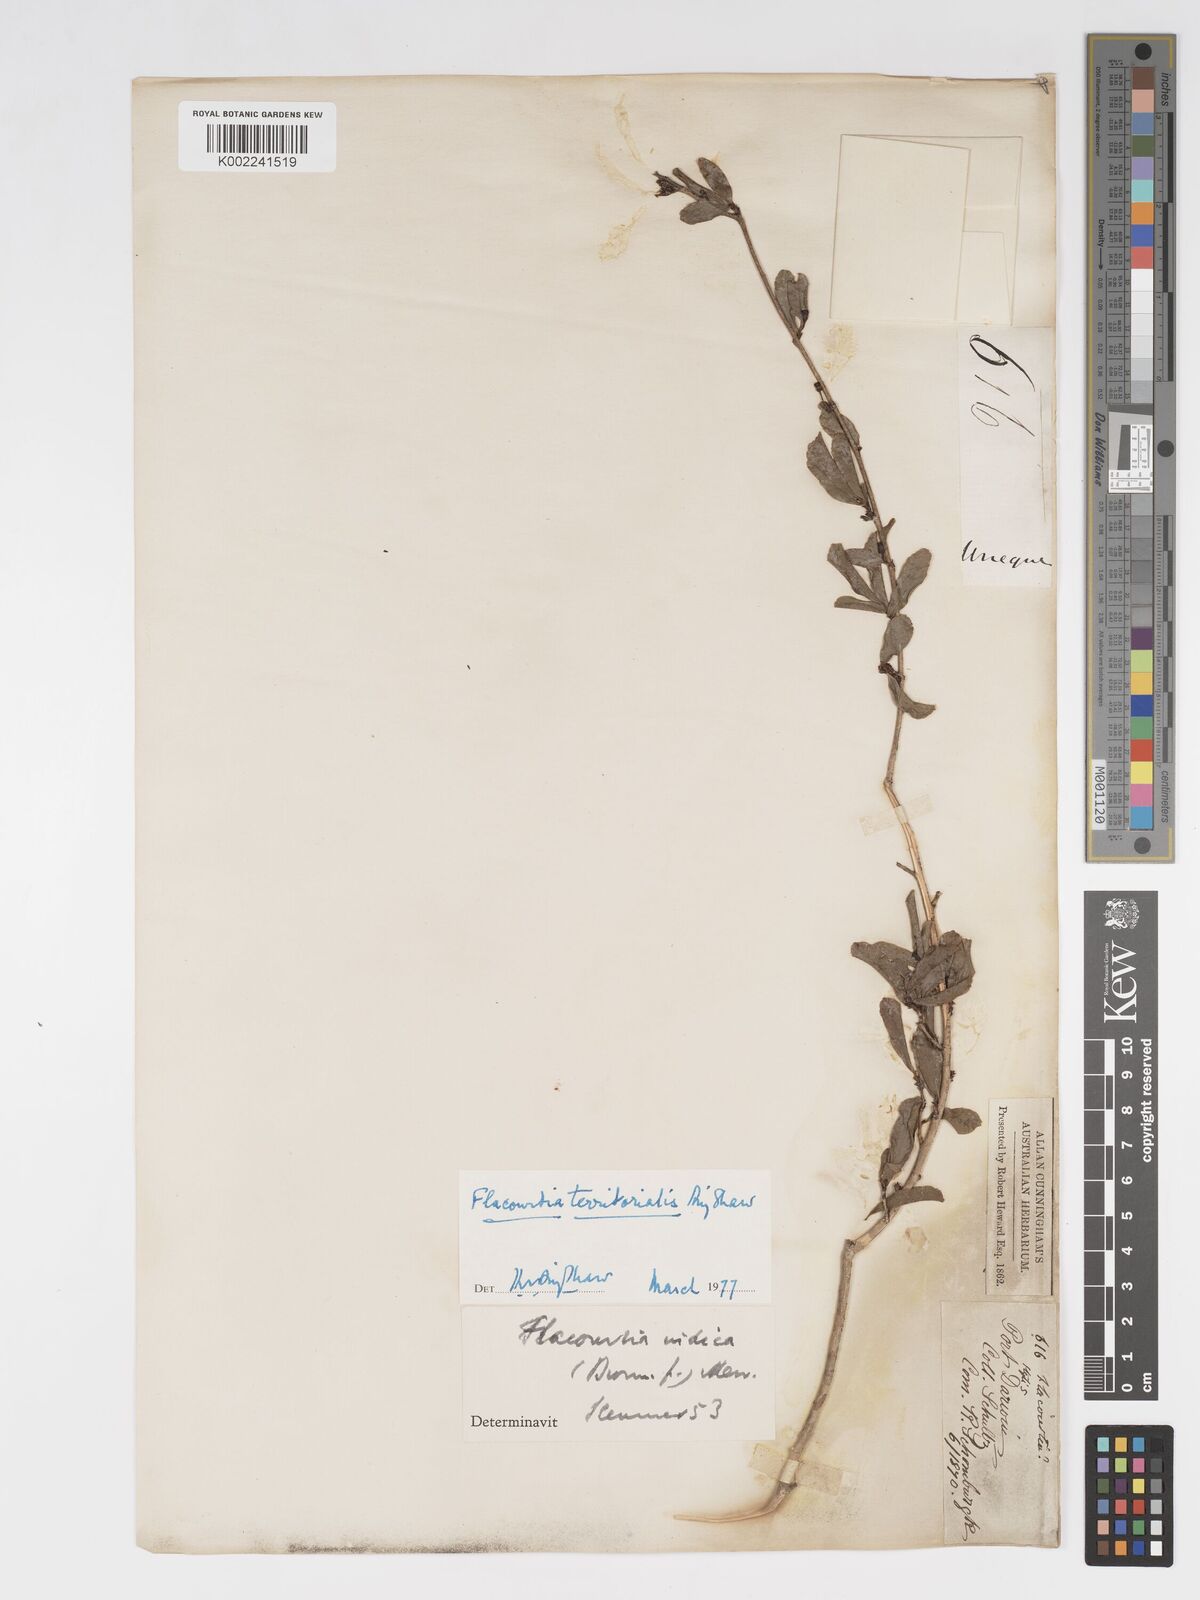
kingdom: Plantae
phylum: Tracheophyta
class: Magnoliopsida
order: Malpighiales
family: Salicaceae
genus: Flacourtia
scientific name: Flacourtia territorialis
